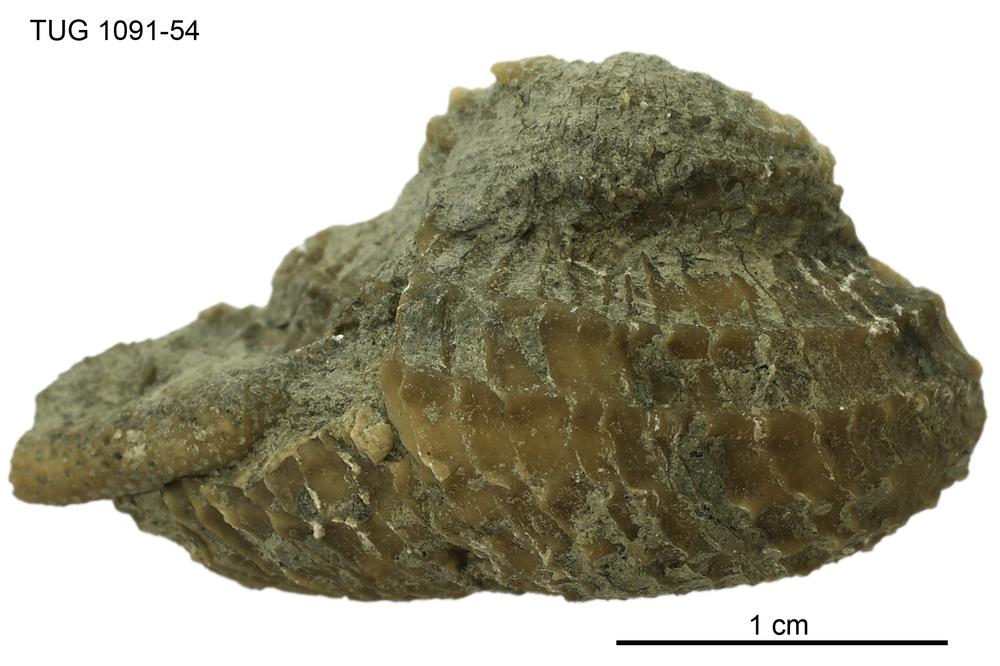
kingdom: Animalia
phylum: Mollusca
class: Gastropoda
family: Euomphalidae
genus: Poleumita
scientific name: Poleumita
